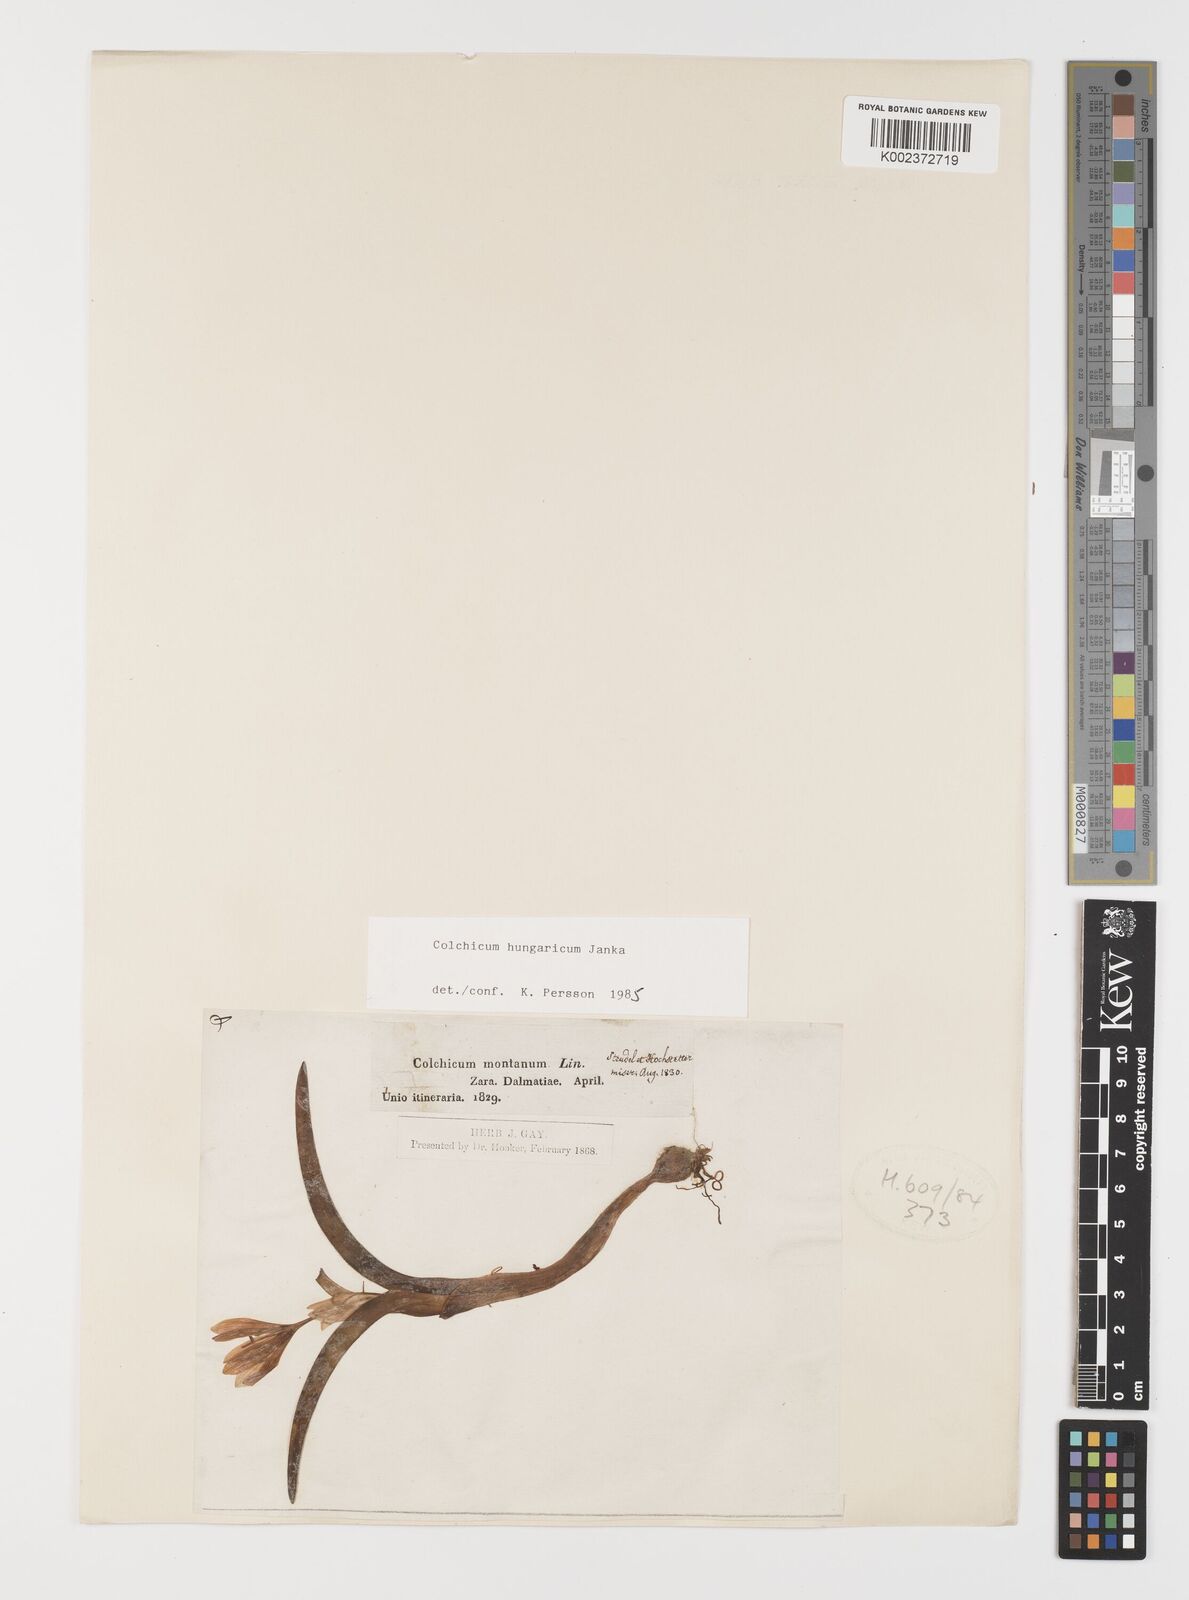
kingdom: Plantae
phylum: Tracheophyta
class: Liliopsida
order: Liliales
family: Colchicaceae
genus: Colchicum
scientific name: Colchicum hungaricum
